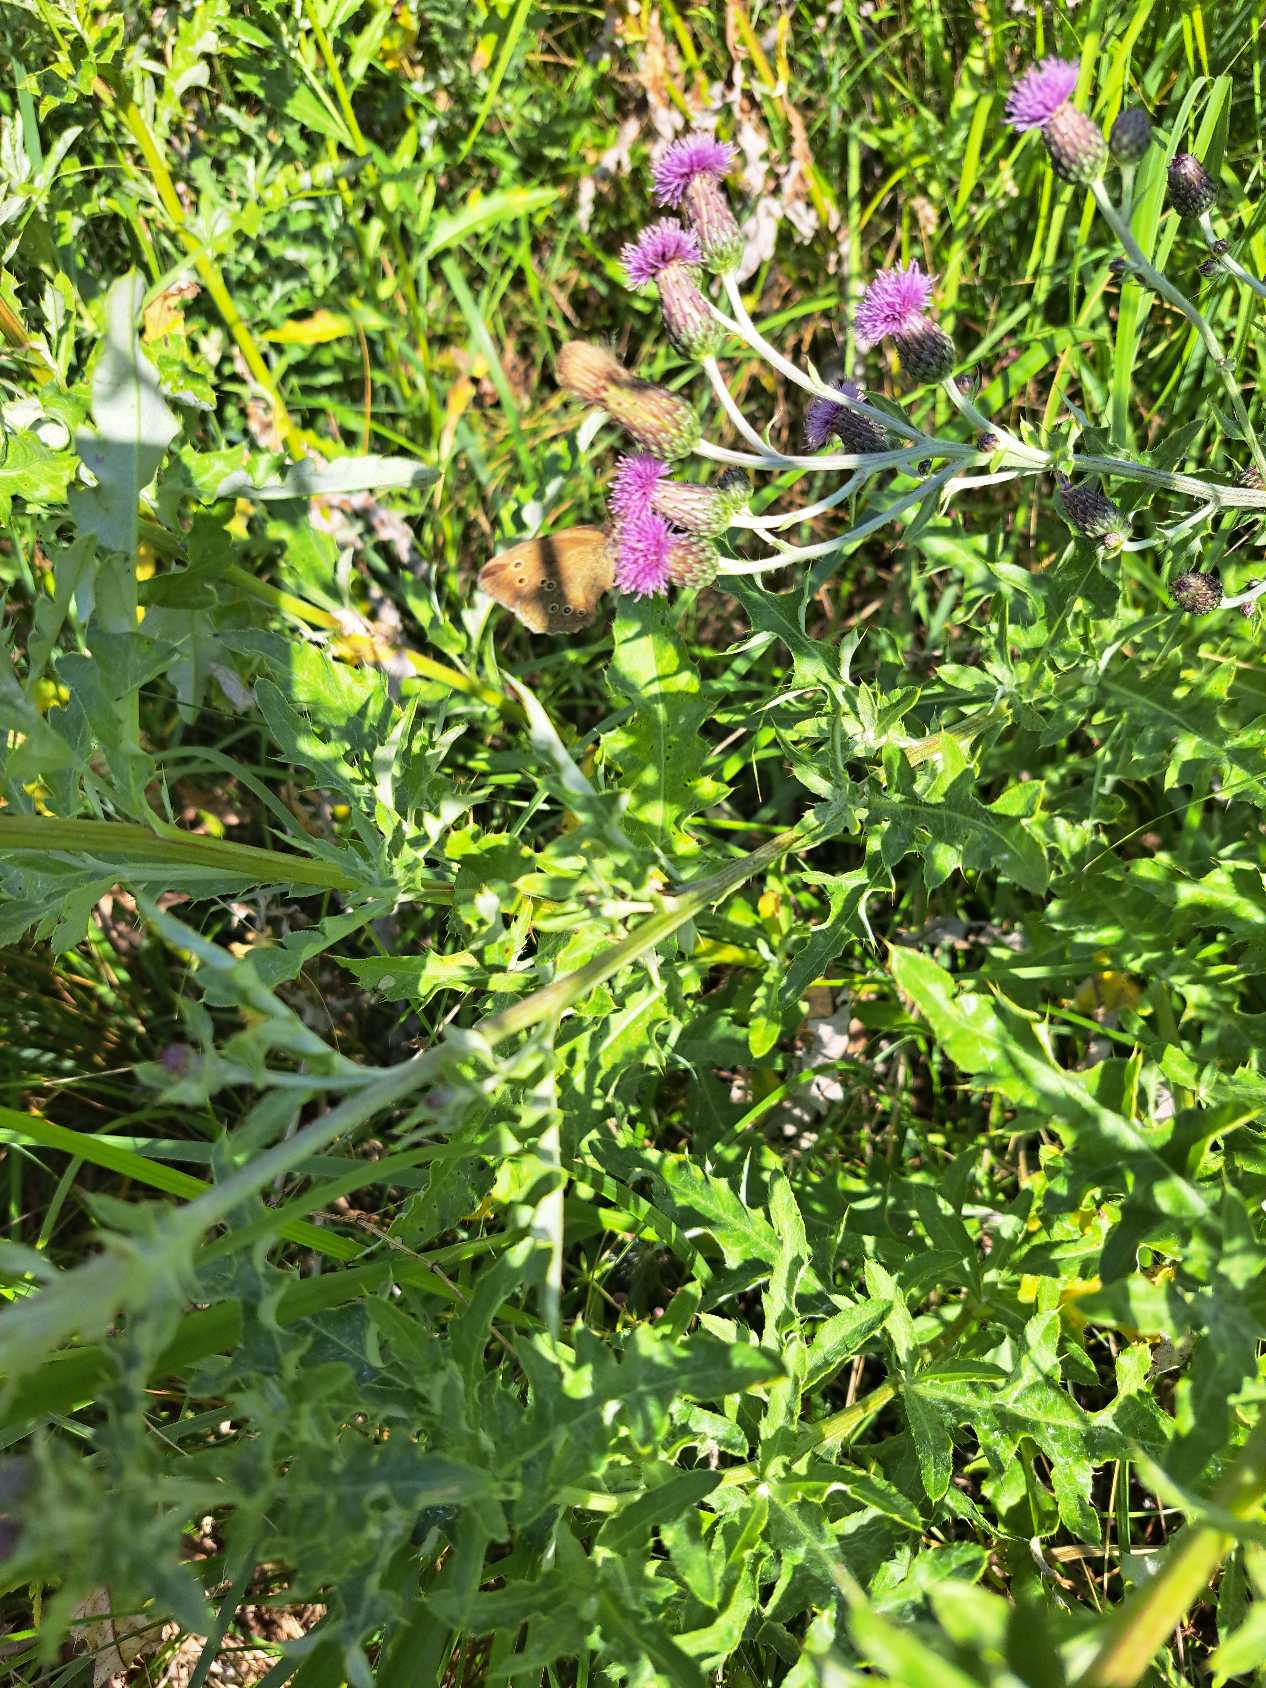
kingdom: Animalia
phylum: Arthropoda
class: Insecta
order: Lepidoptera
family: Nymphalidae
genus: Aphantopus
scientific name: Aphantopus hyperantus
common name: Engrandøje
